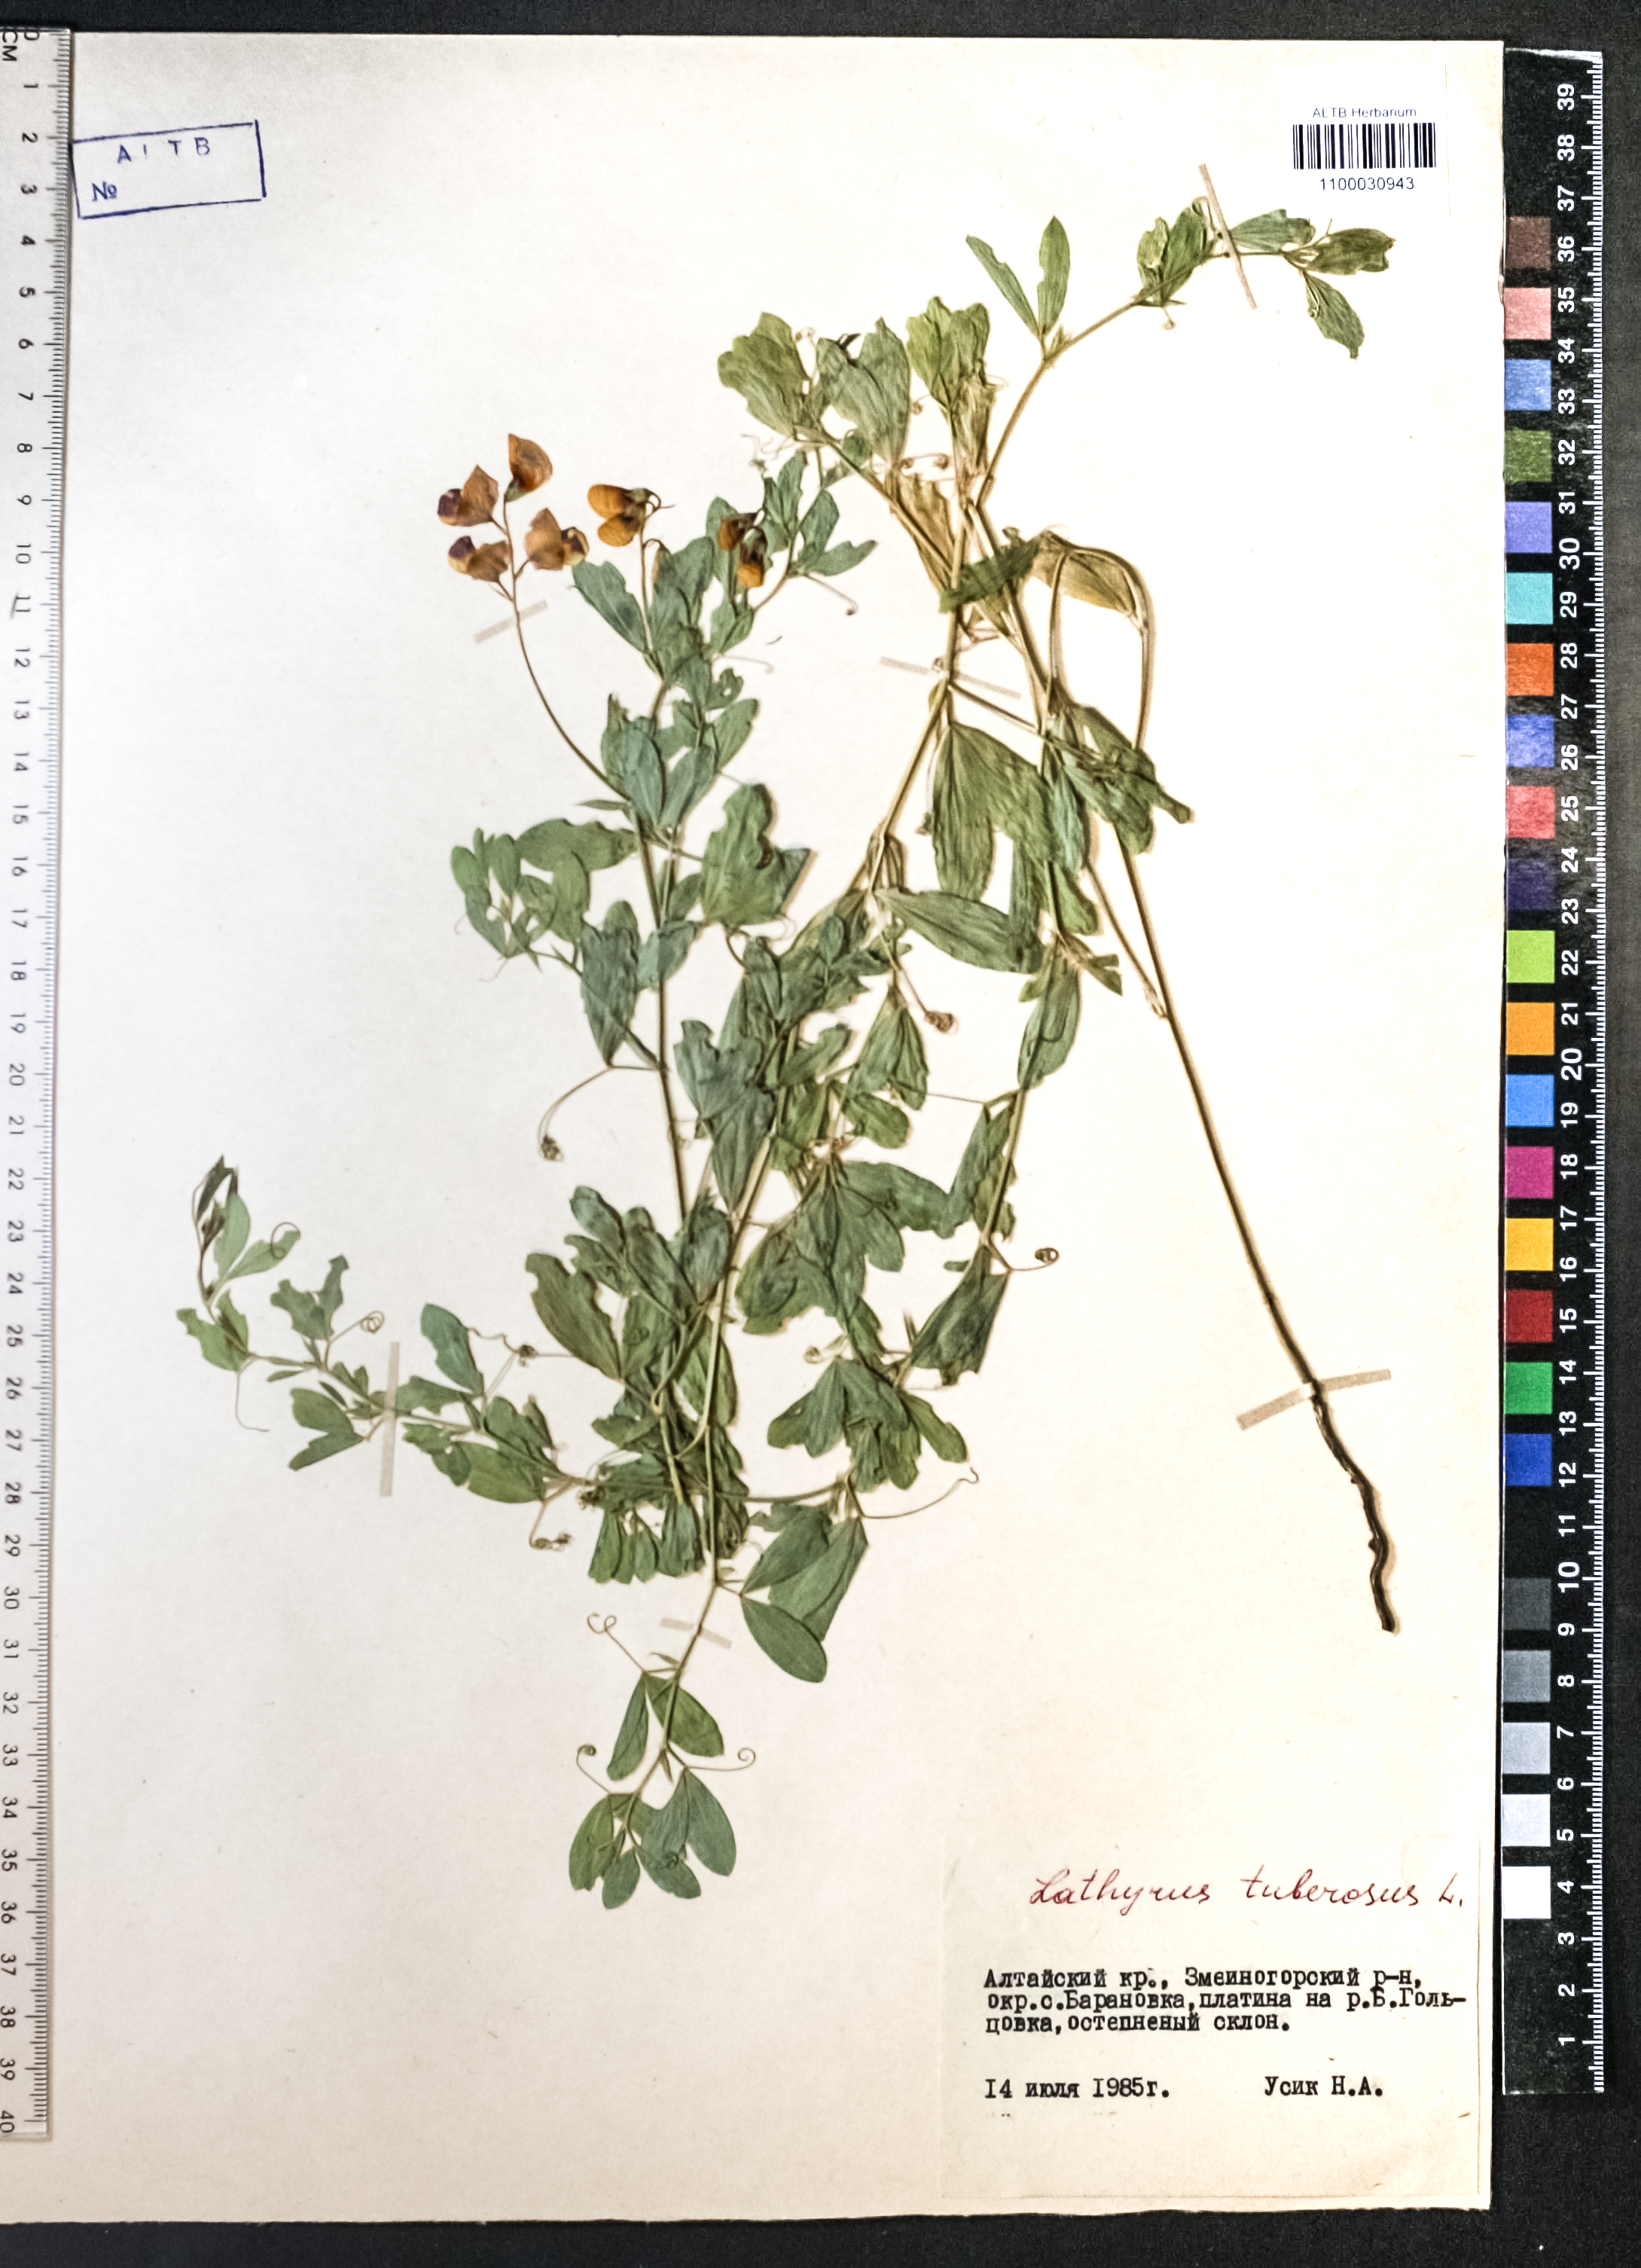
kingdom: Plantae
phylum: Tracheophyta
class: Magnoliopsida
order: Fabales
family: Fabaceae
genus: Lathyrus
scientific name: Lathyrus tuberosus
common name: Tuberous pea
